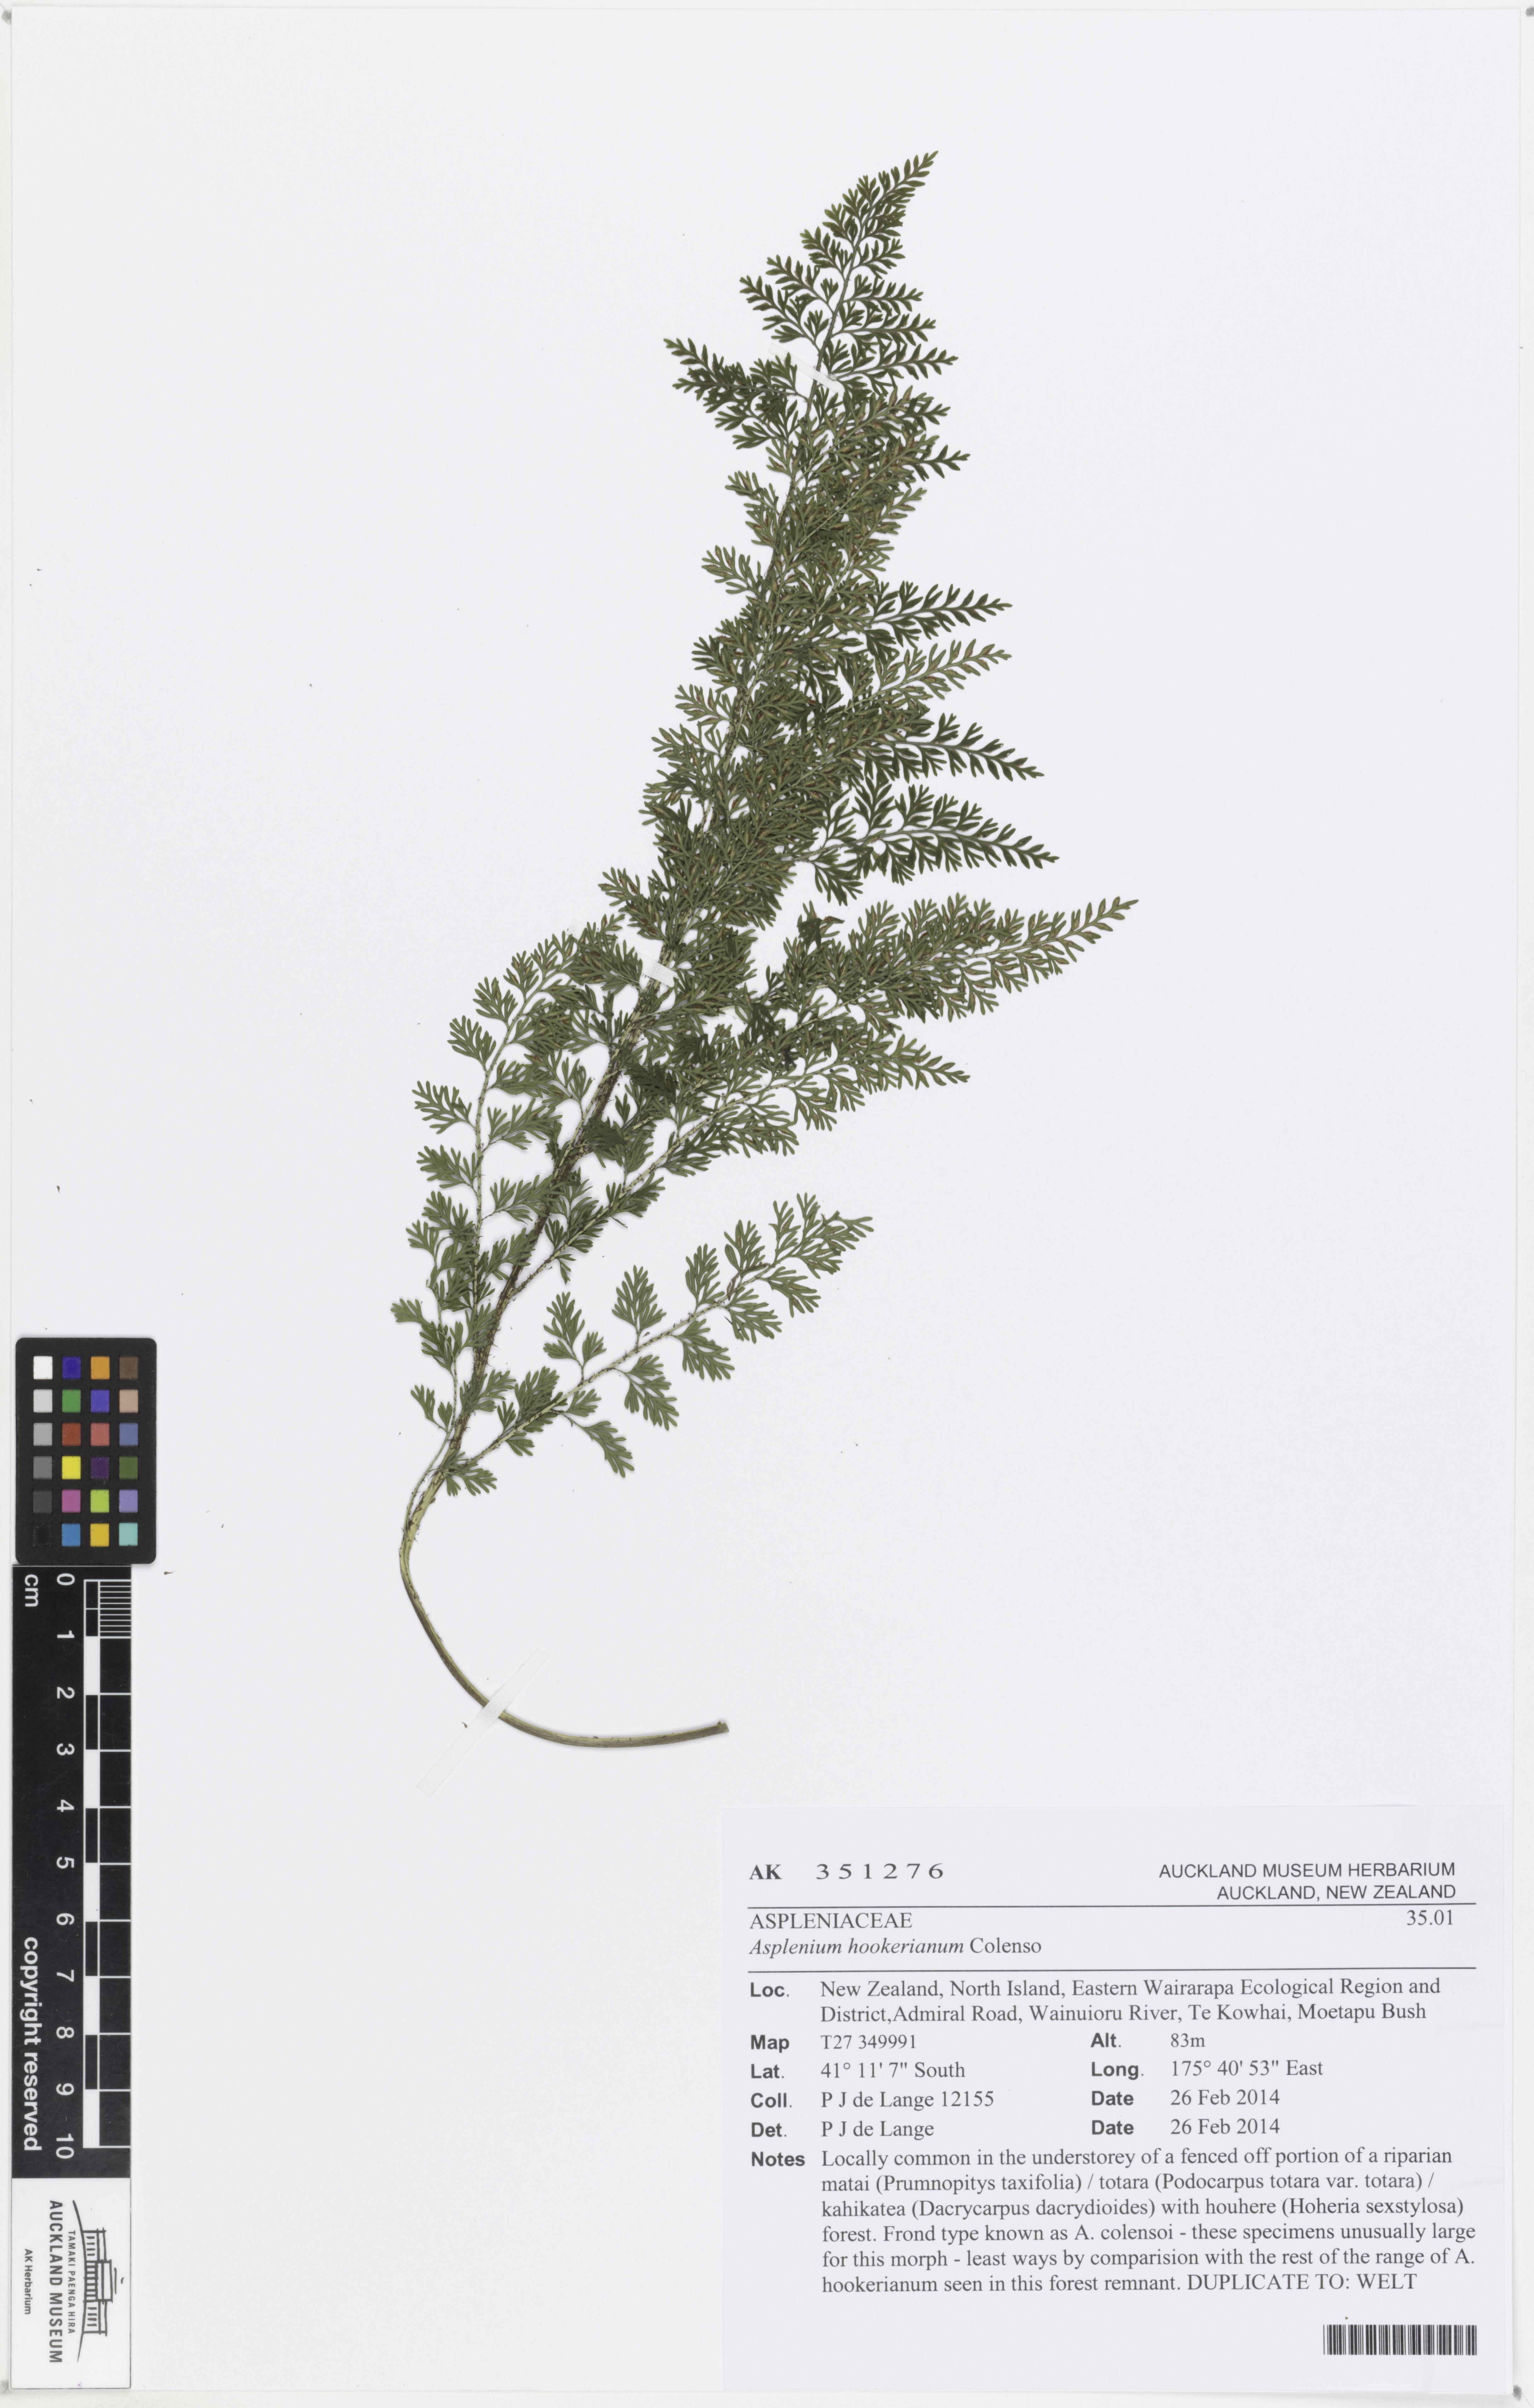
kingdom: Plantae
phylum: Tracheophyta
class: Polypodiopsida
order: Polypodiales
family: Aspleniaceae
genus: Asplenium
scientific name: Asplenium hookerianum
